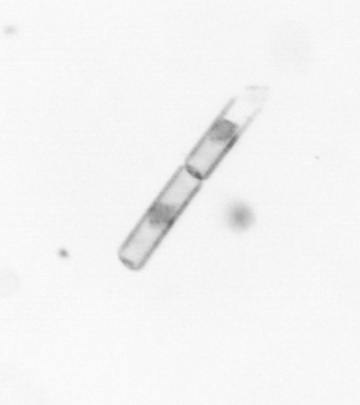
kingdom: Chromista
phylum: Ochrophyta
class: Bacillariophyceae
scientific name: Bacillariophyceae
